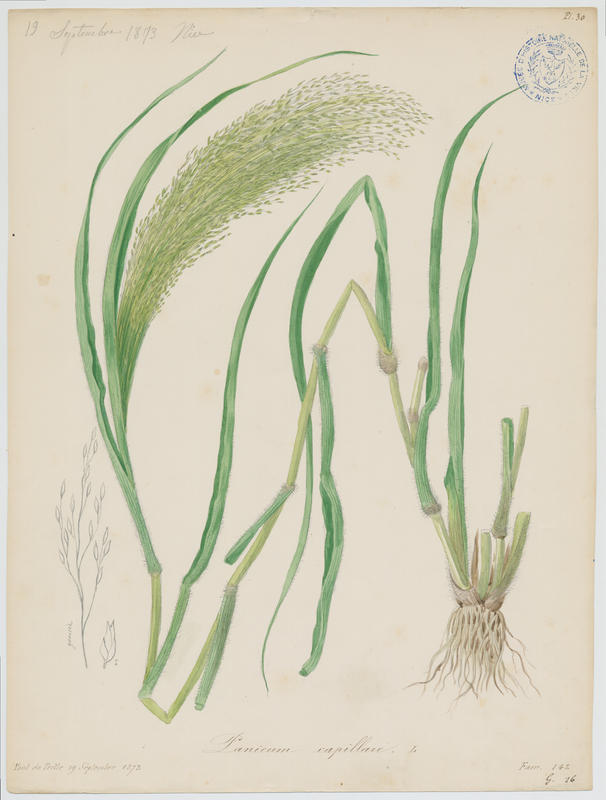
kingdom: Plantae
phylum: Tracheophyta
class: Liliopsida
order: Poales
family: Poaceae
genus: Panicum
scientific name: Panicum capillare
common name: Witch-grass
